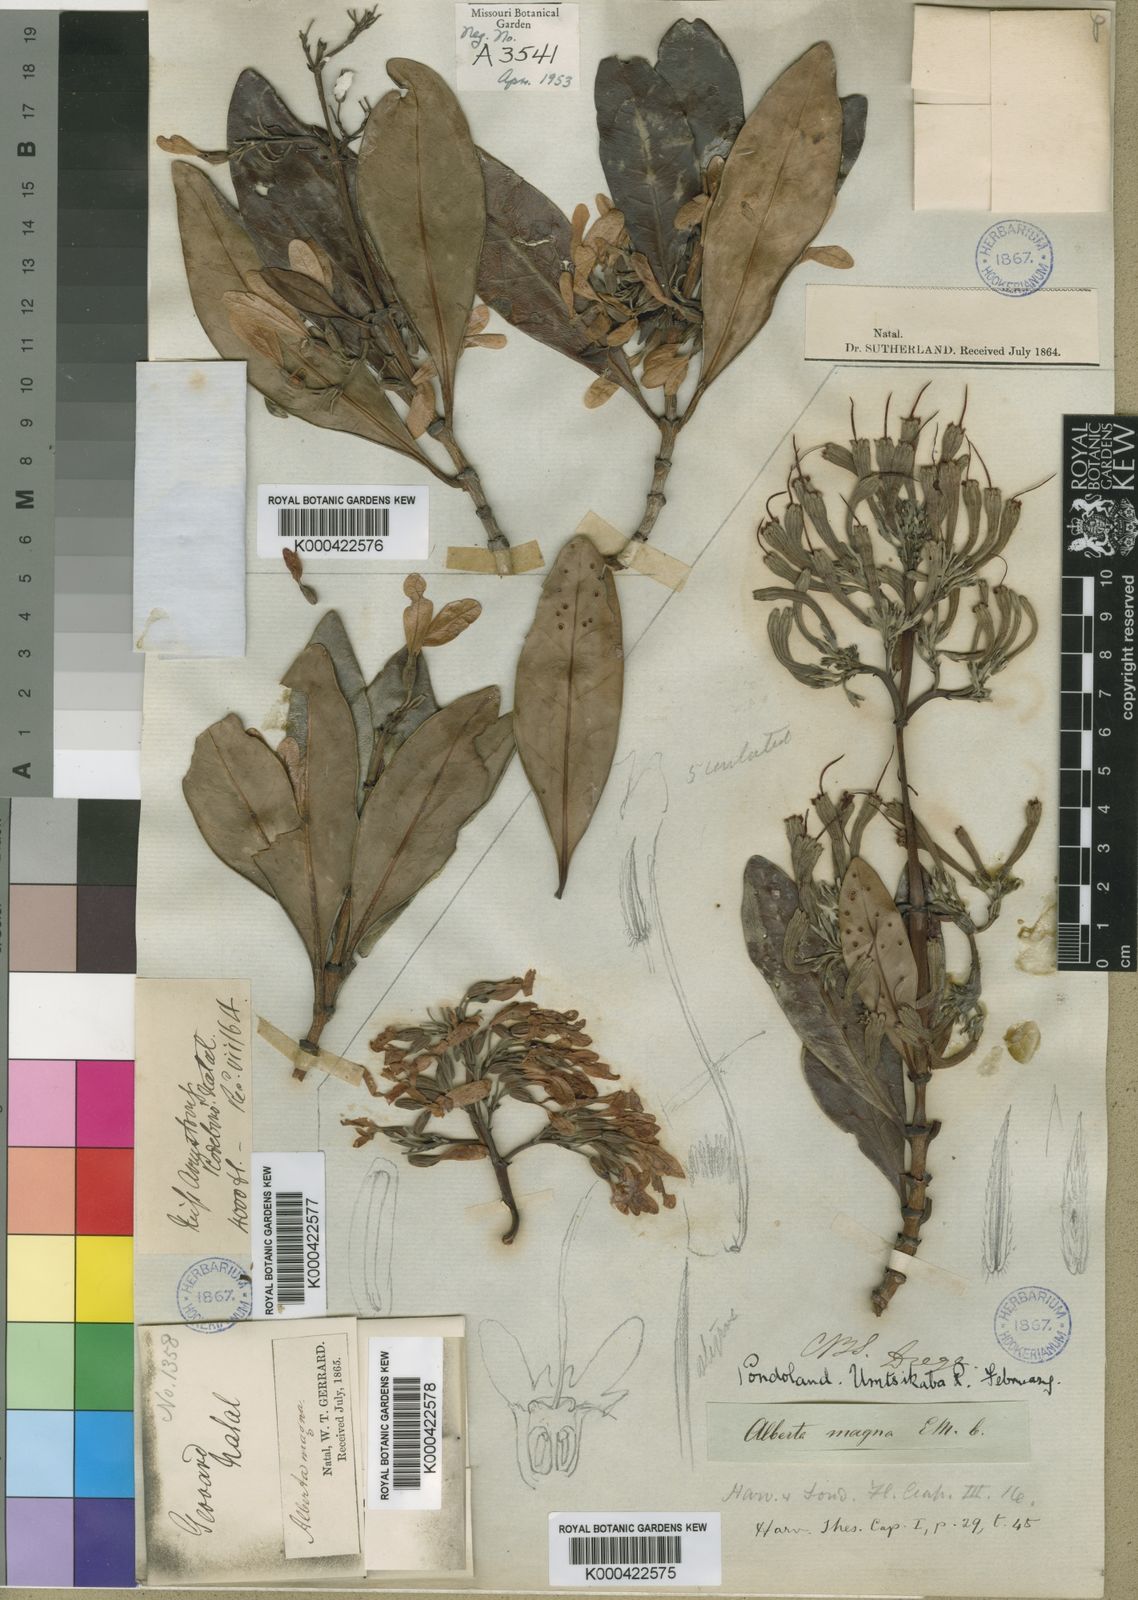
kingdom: Plantae
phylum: Tracheophyta
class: Magnoliopsida
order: Gentianales
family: Rubiaceae
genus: Alberta
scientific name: Alberta magna
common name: Magnificent-flame
